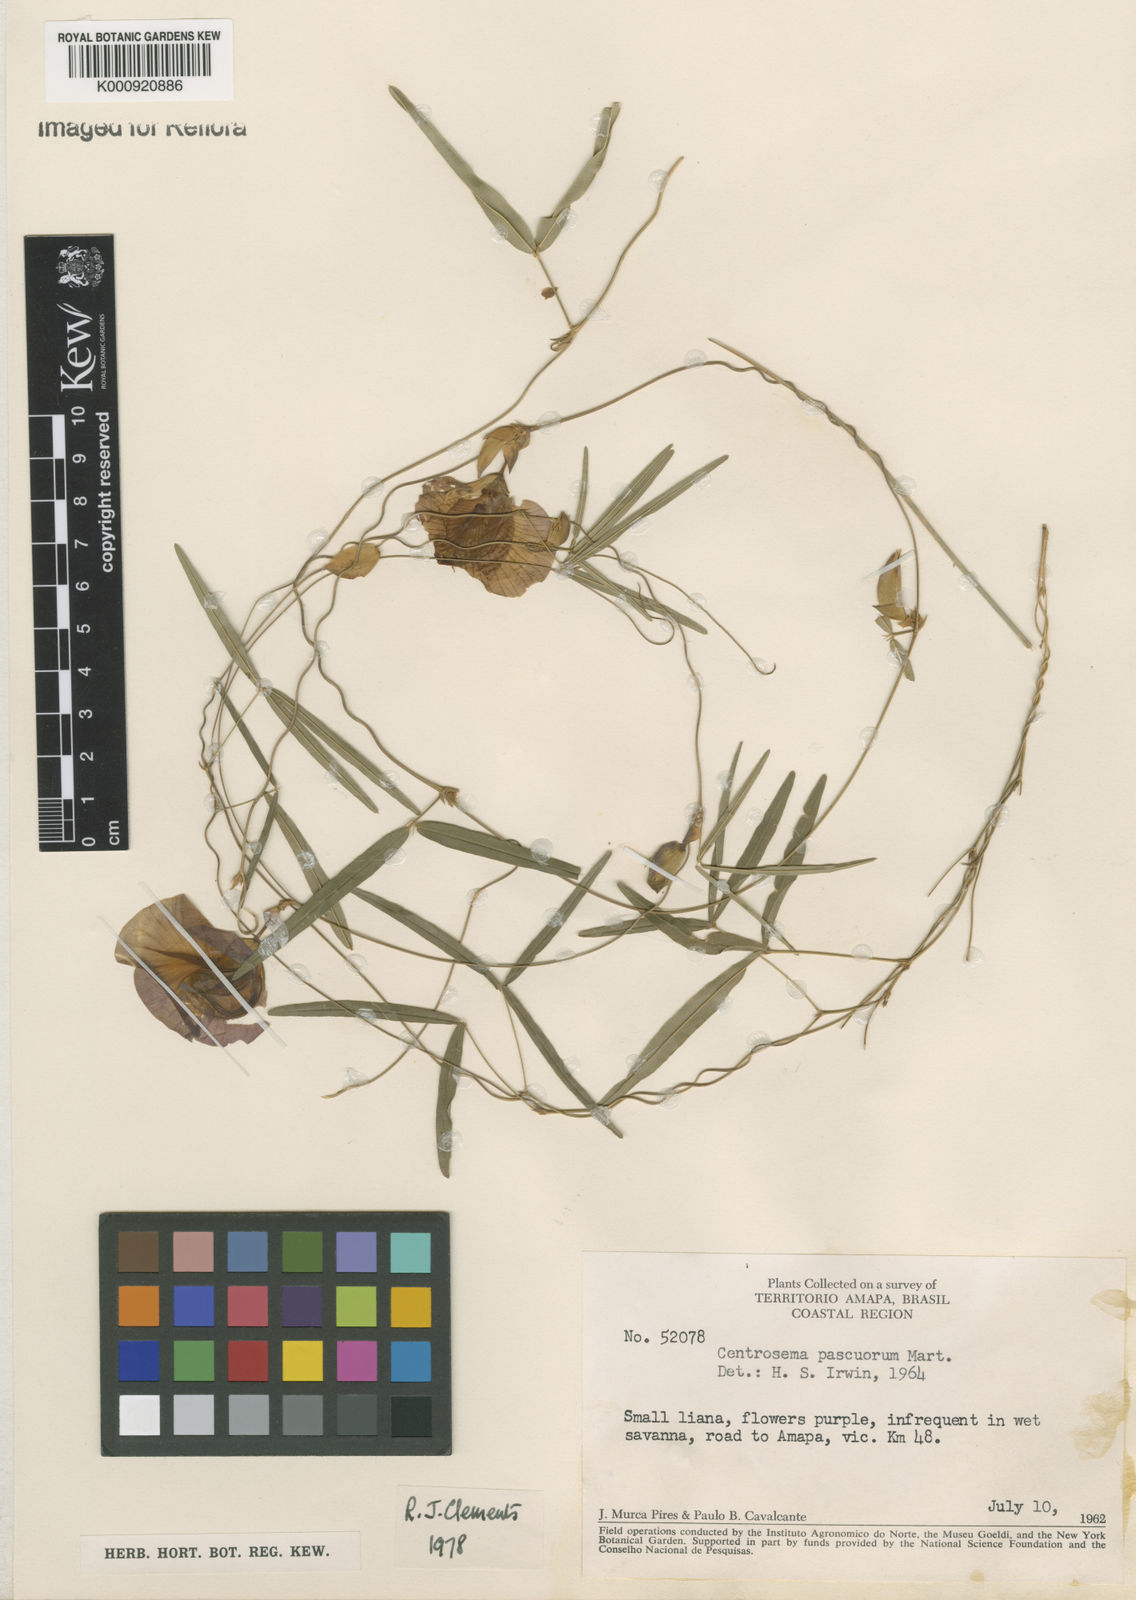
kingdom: Plantae
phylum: Tracheophyta
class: Magnoliopsida
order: Fabales
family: Fabaceae
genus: Centrosema
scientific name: Centrosema
